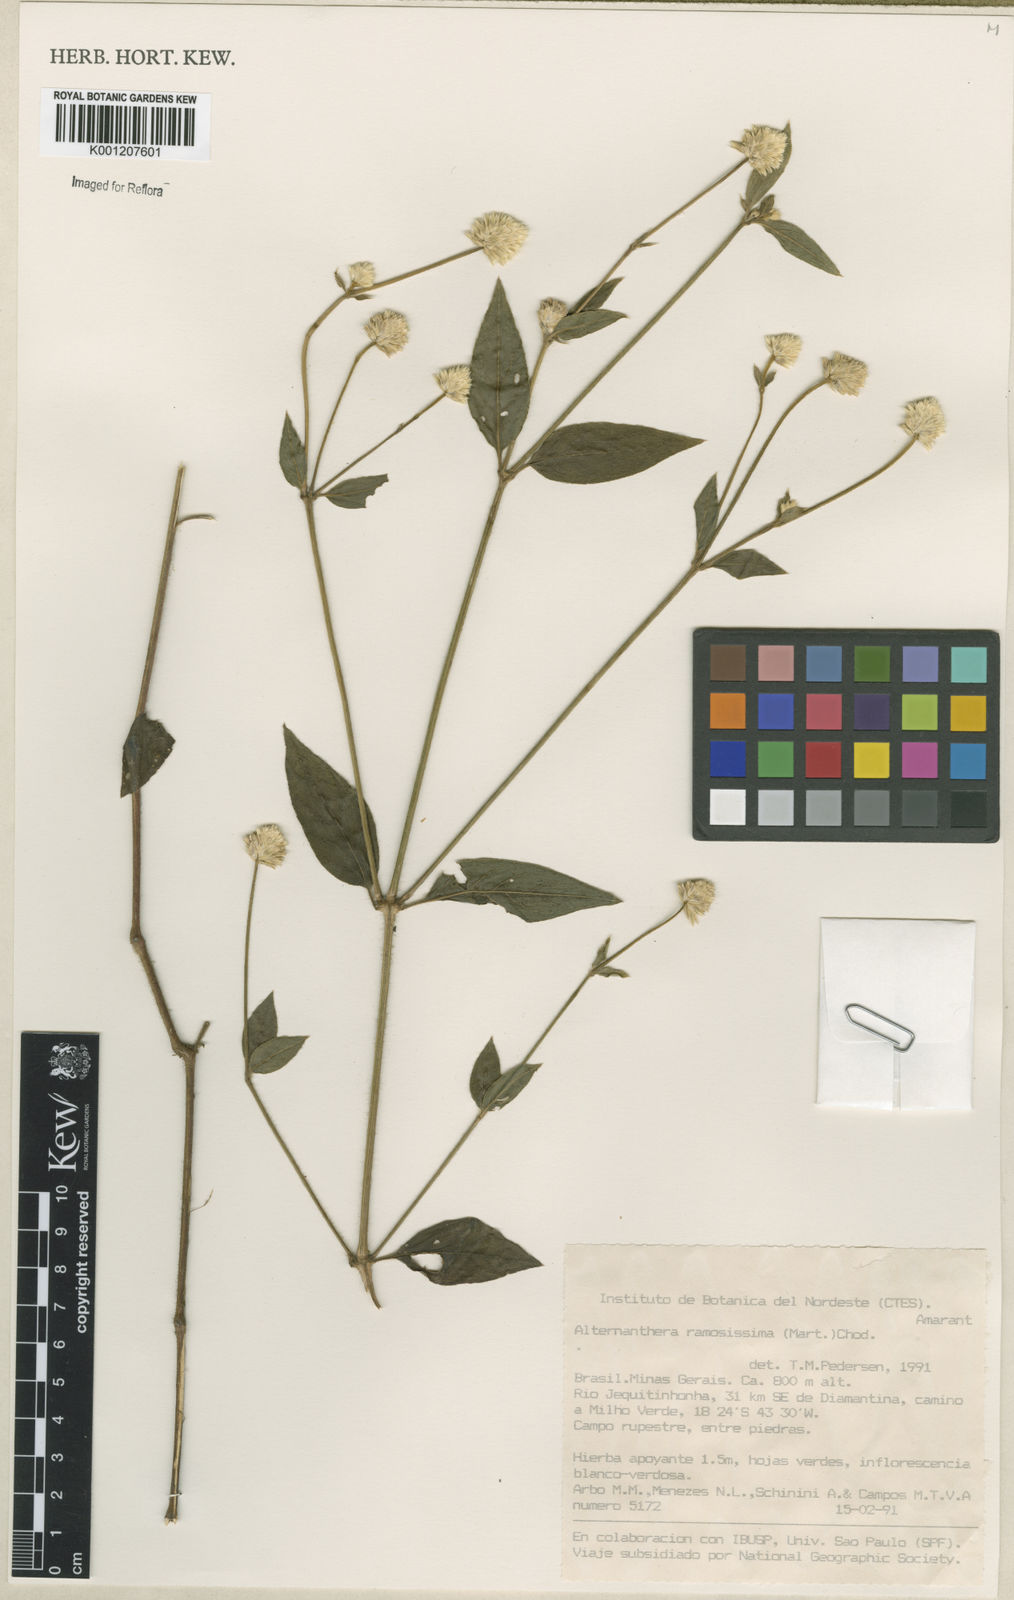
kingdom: Plantae
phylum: Tracheophyta
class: Magnoliopsida
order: Caryophyllales
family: Amaranthaceae
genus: Alternanthera
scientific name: Alternanthera ramosissima
